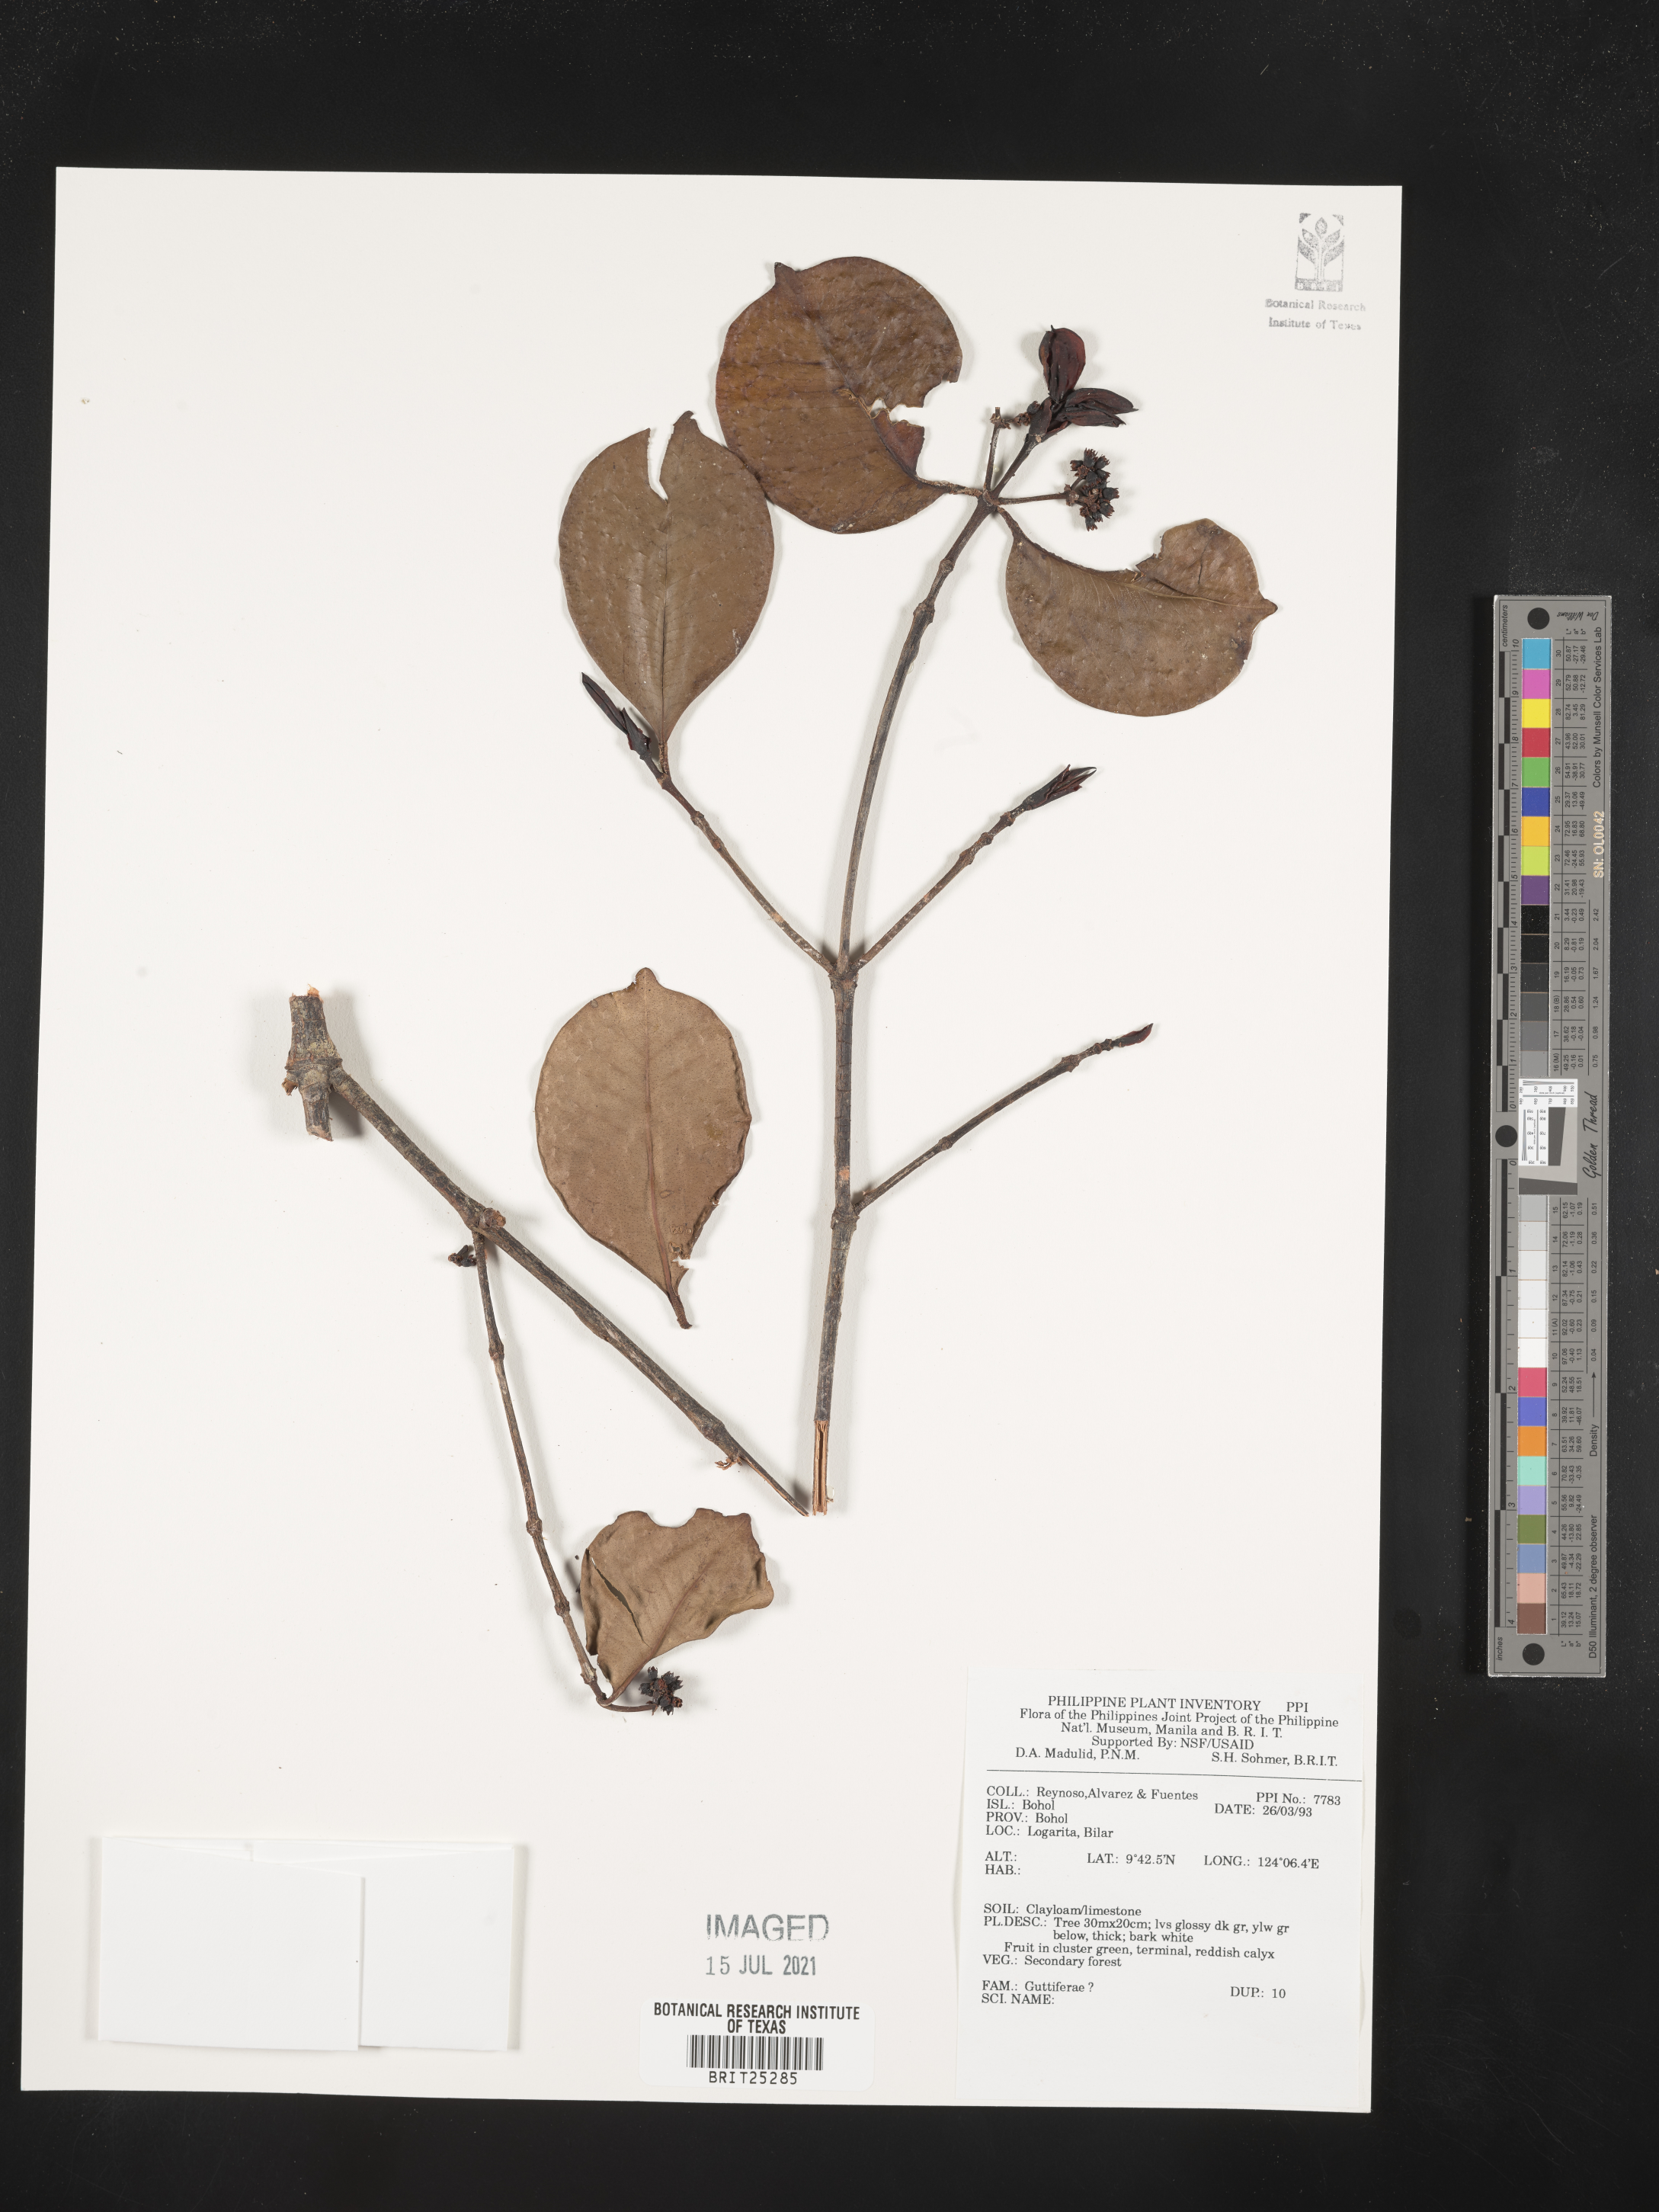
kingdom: Plantae
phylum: Tracheophyta
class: Magnoliopsida
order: Malpighiales
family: Hypericaceae
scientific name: Hypericaceae
